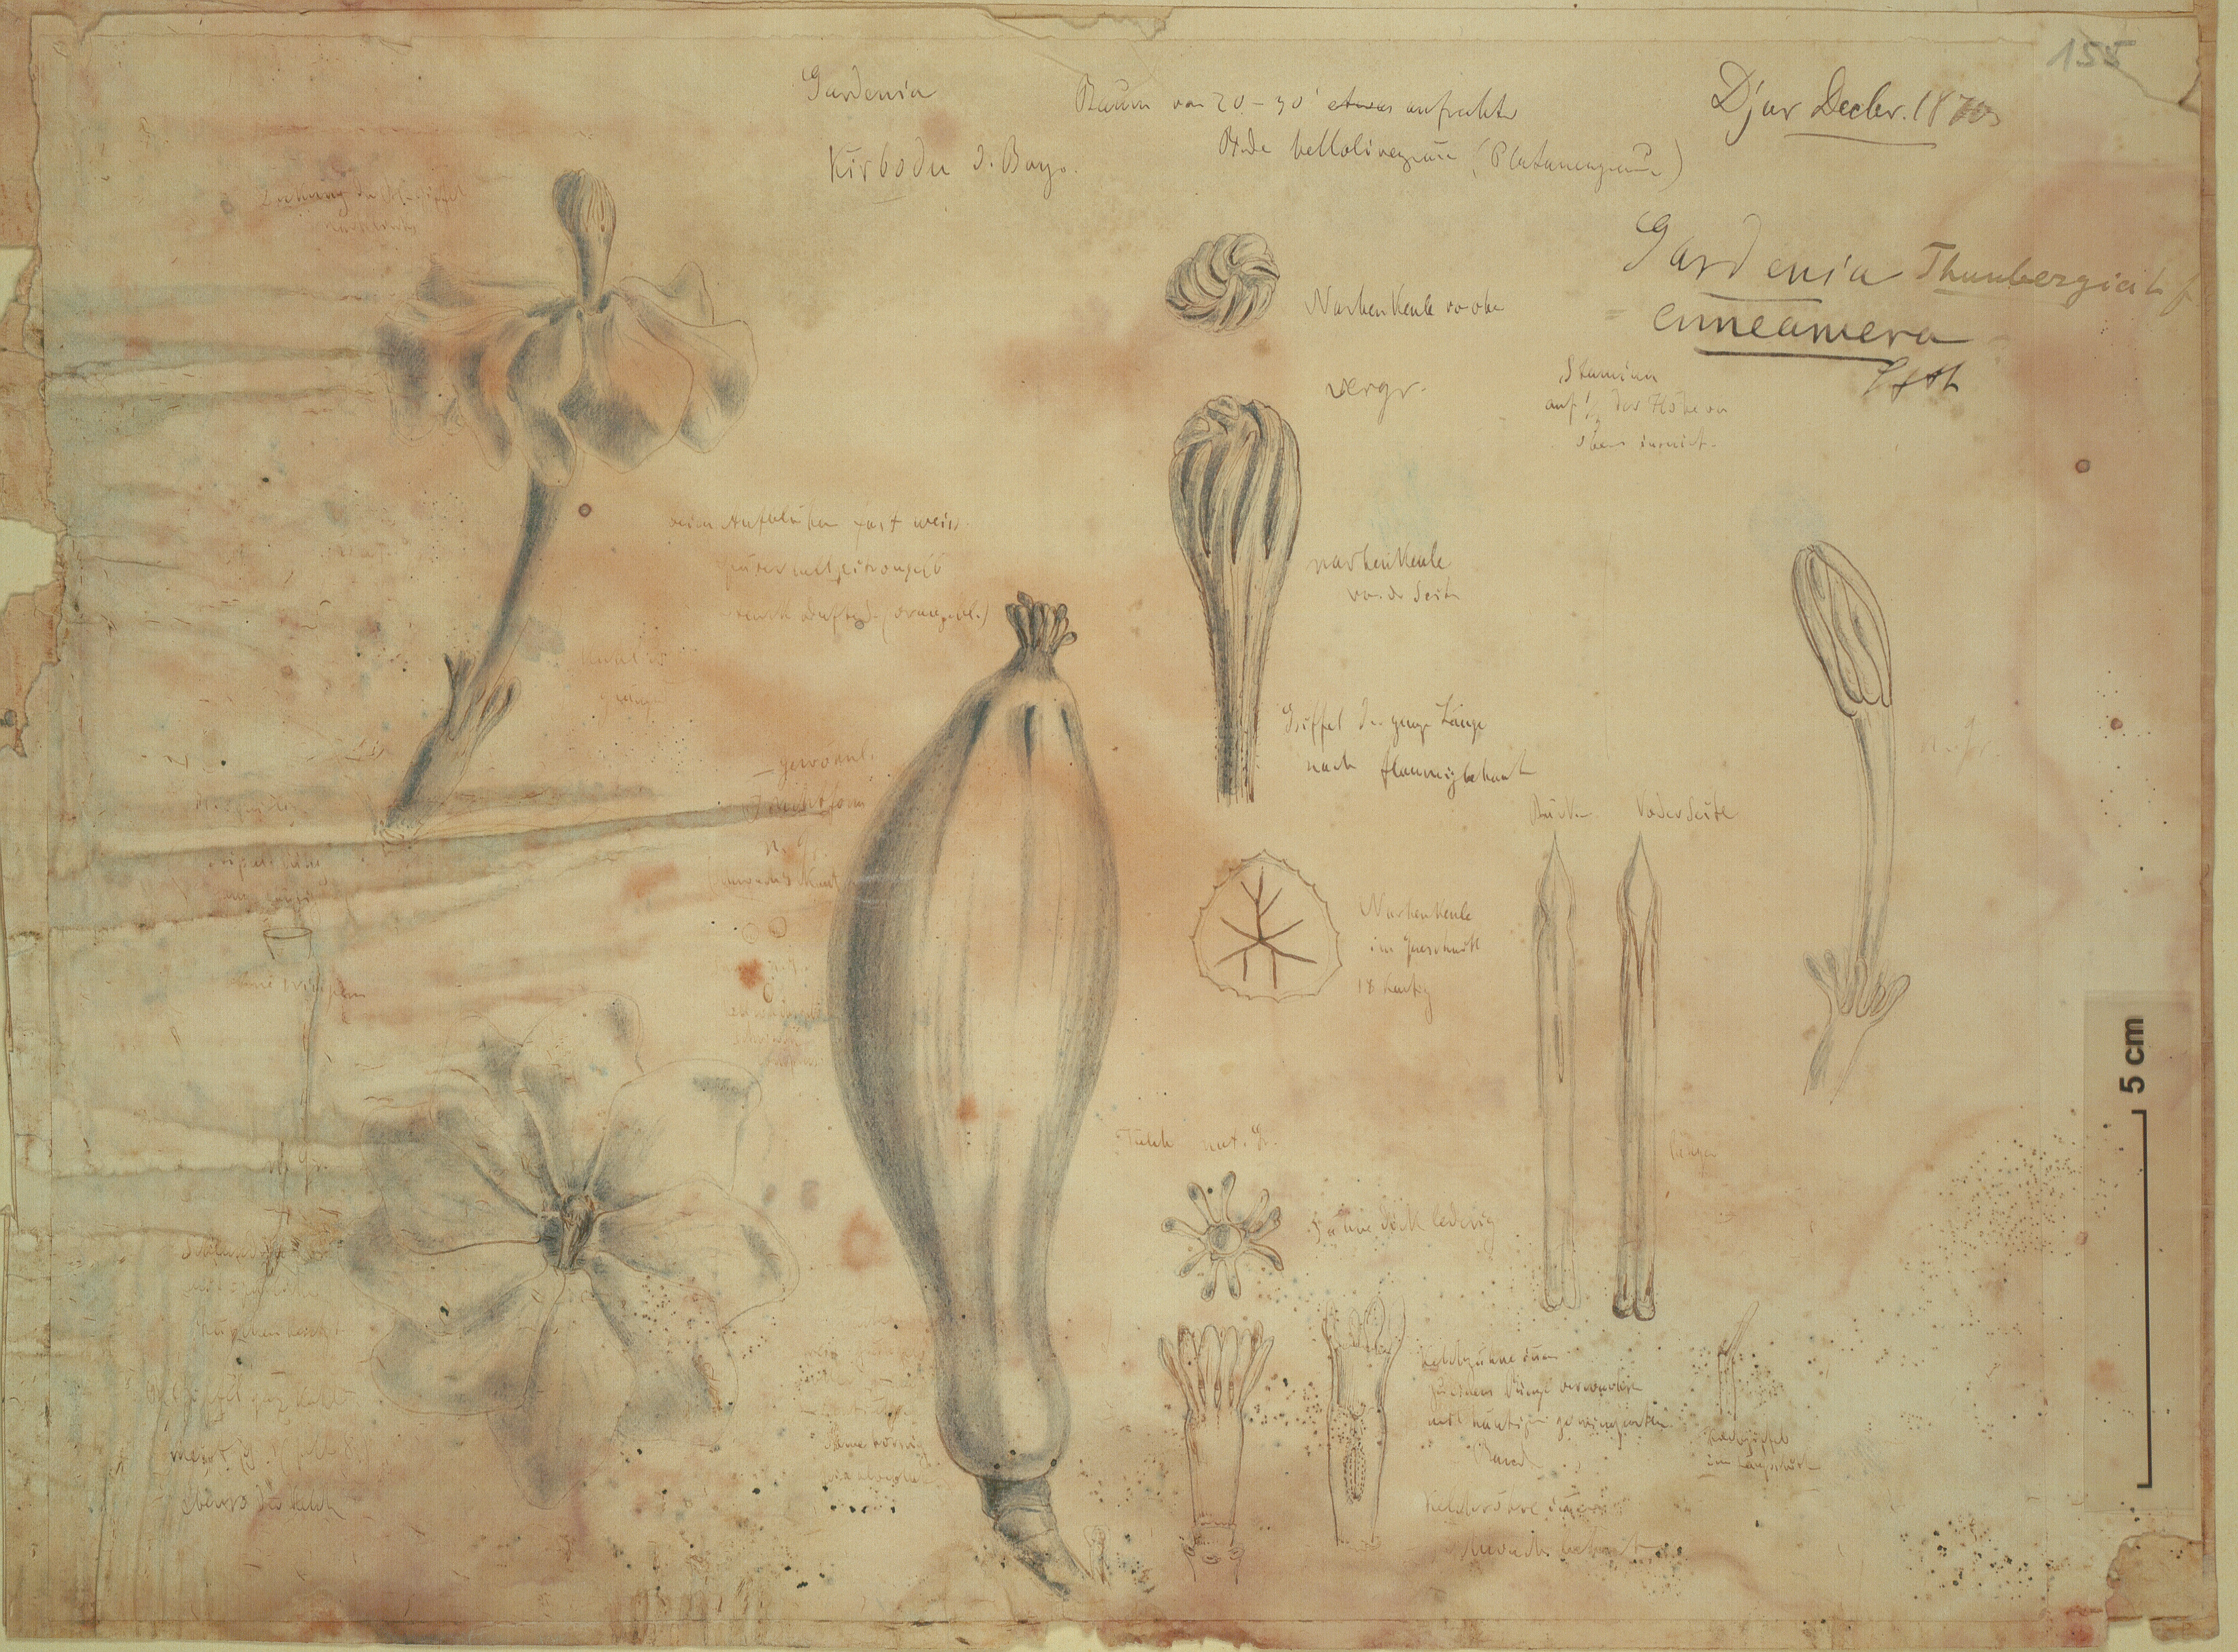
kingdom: Plantae
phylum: Tracheophyta
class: Magnoliopsida
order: Gentianales
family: Rubiaceae
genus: Gardenia
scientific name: Gardenia ternifolia
